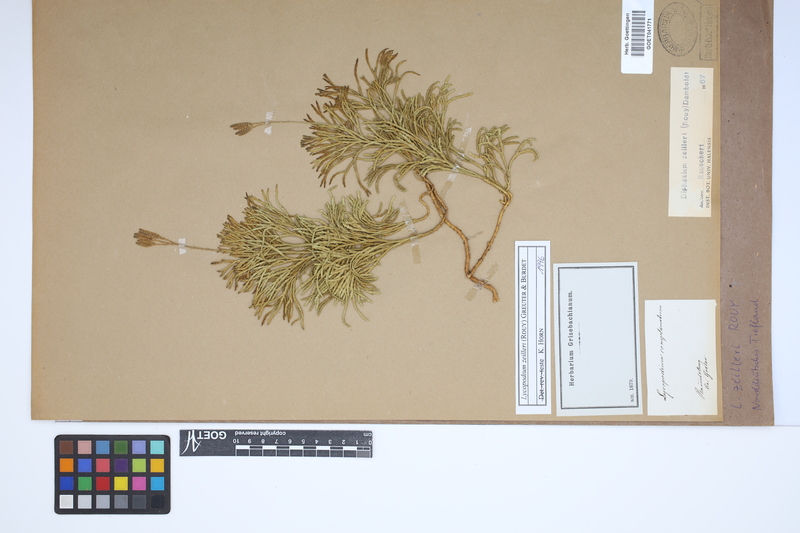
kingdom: Plantae
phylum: Tracheophyta
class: Lycopodiopsida
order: Lycopodiales
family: Lycopodiaceae
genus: Diphasiastrum
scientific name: Diphasiastrum zeilleri
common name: Zeiller's clubmoss
